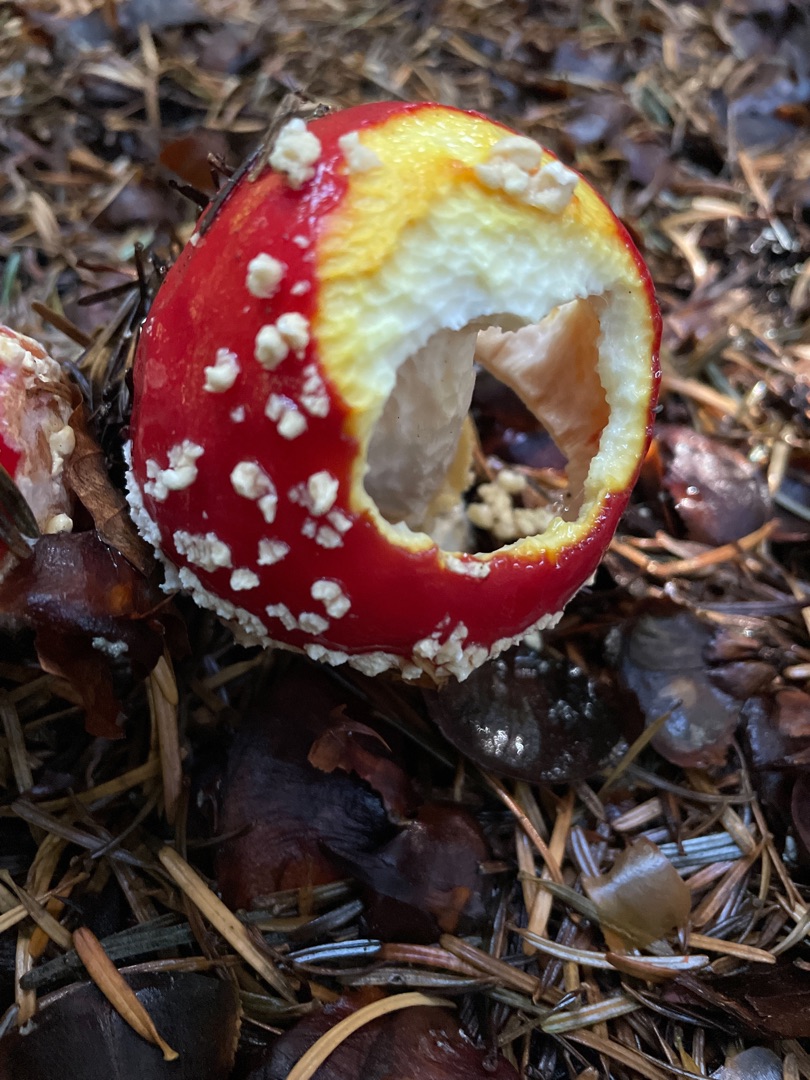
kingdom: Fungi
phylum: Basidiomycota
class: Agaricomycetes
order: Agaricales
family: Amanitaceae
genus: Amanita
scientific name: Amanita muscaria
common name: Rød fluesvamp
